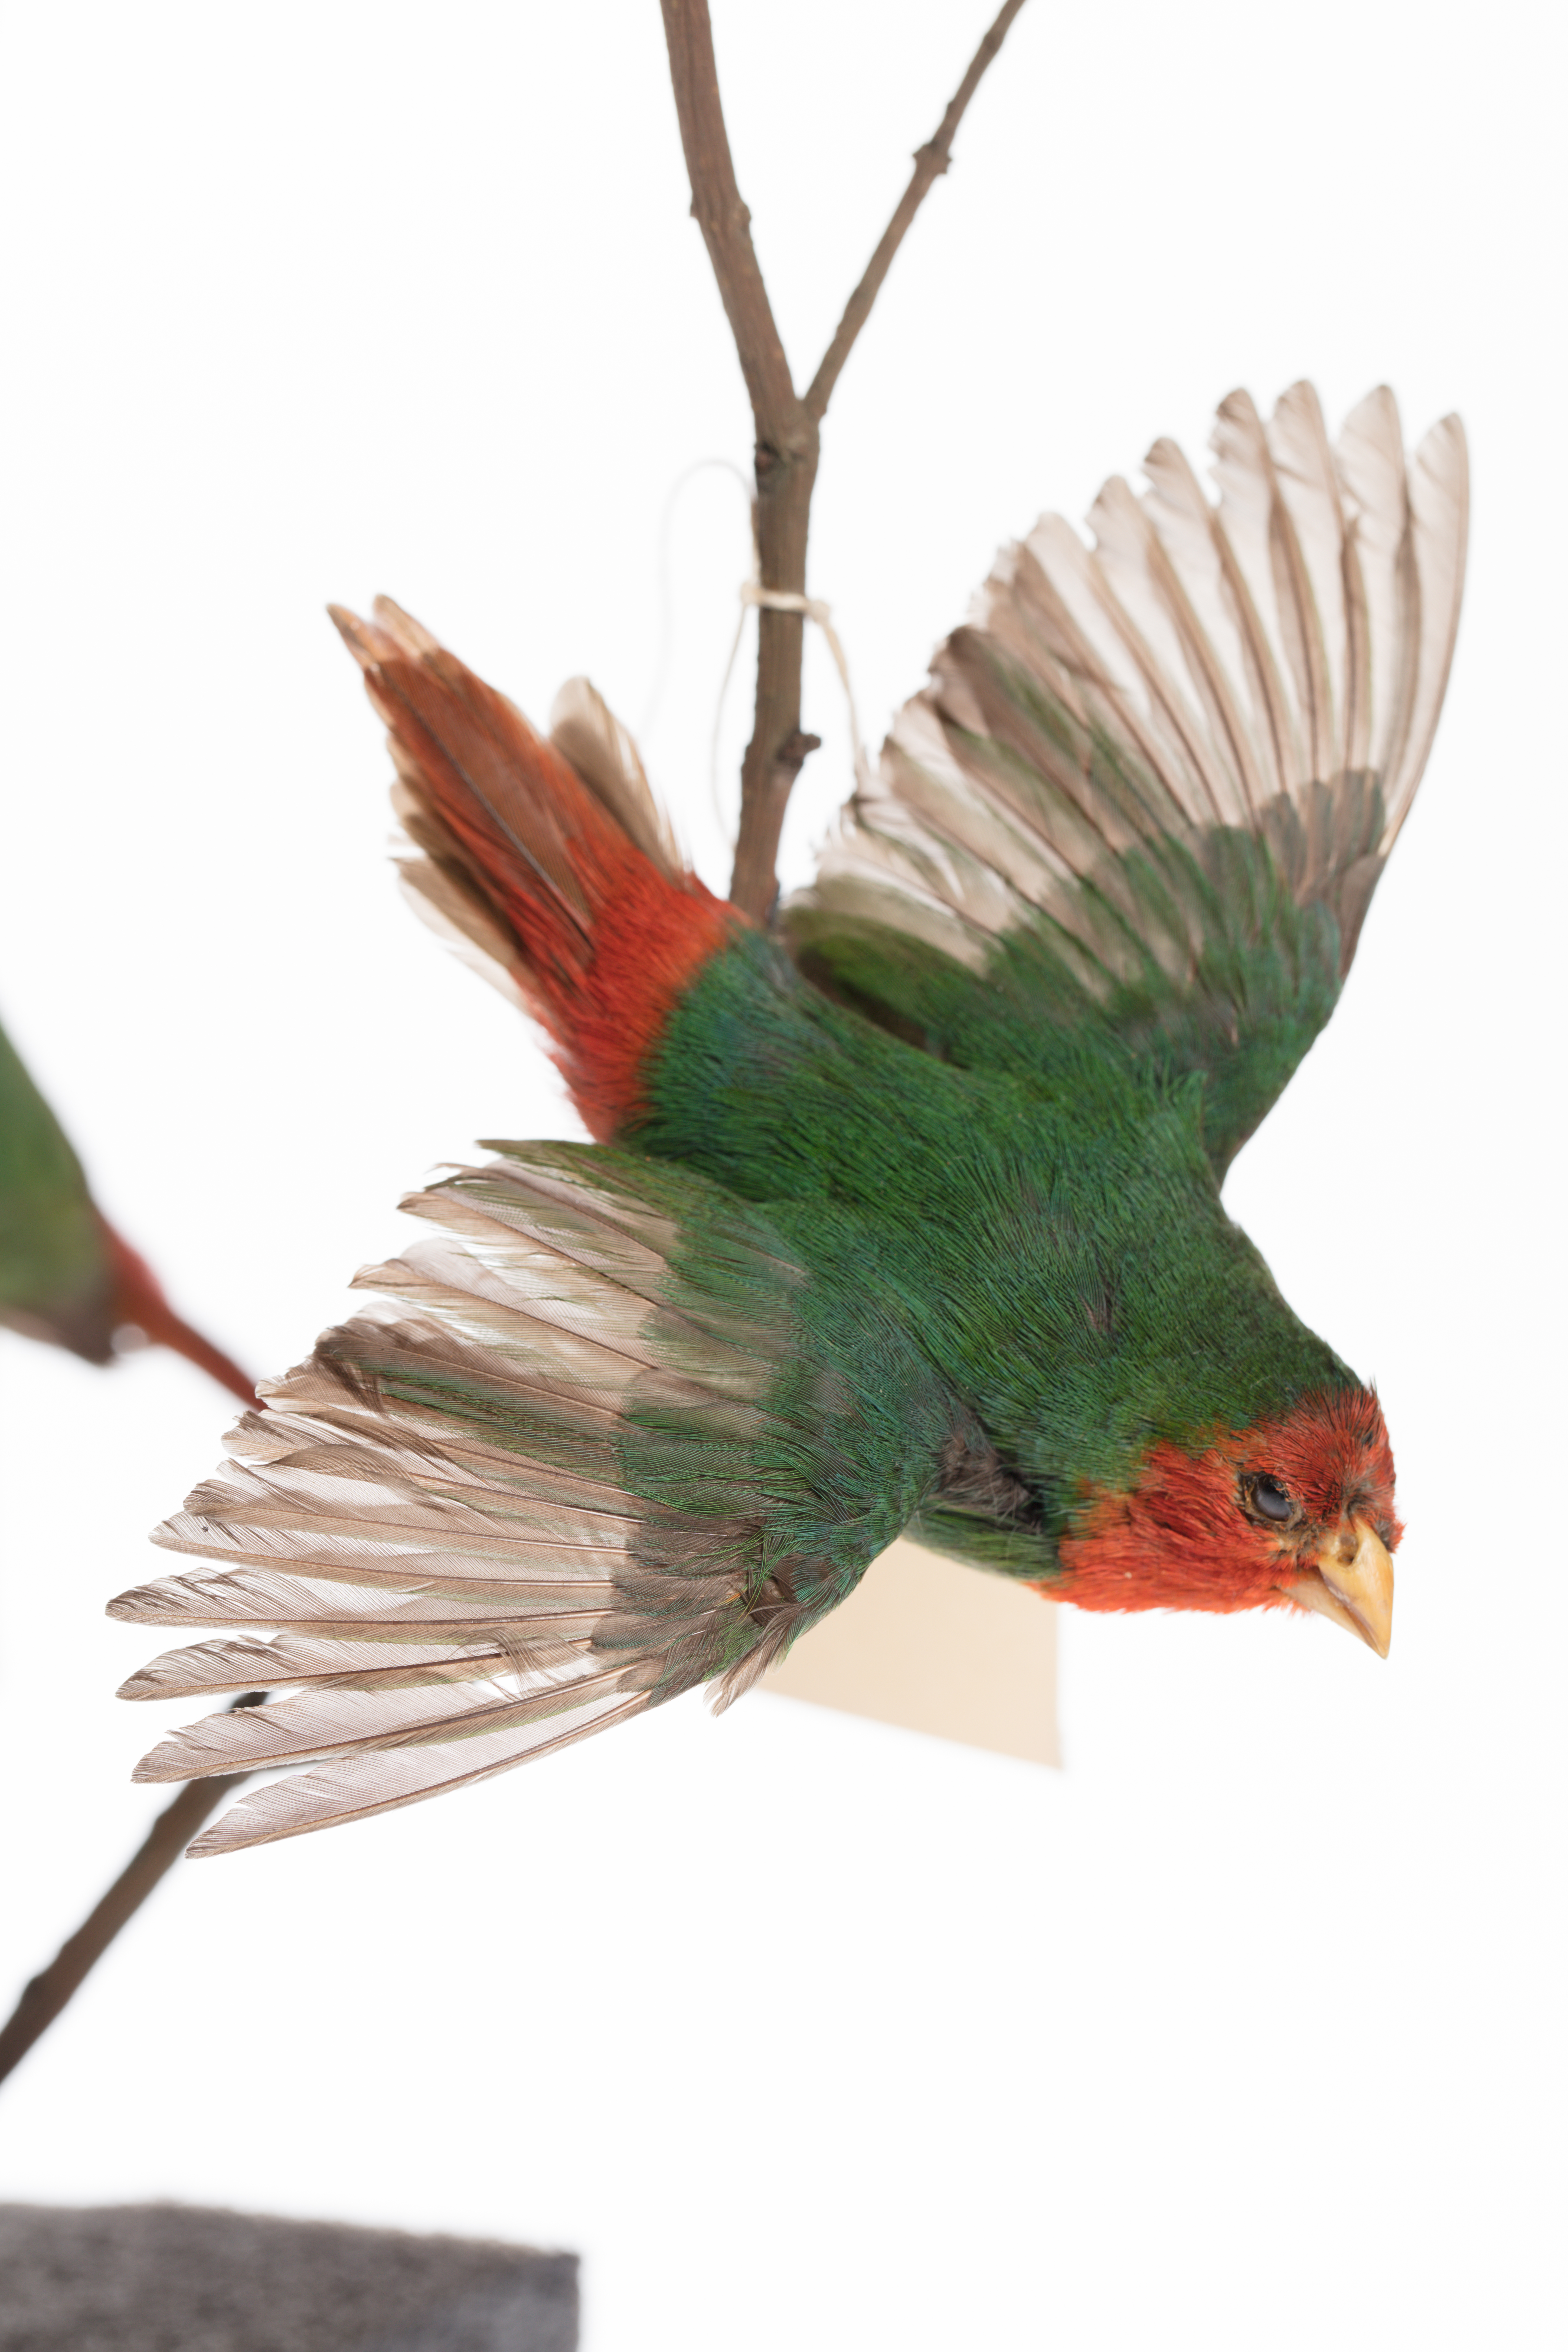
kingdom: Animalia
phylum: Chordata
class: Aves
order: Passeriformes
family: Estrildidae
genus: Erythrura
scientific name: Erythrura psittacea
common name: Red-throated parrotfinch
